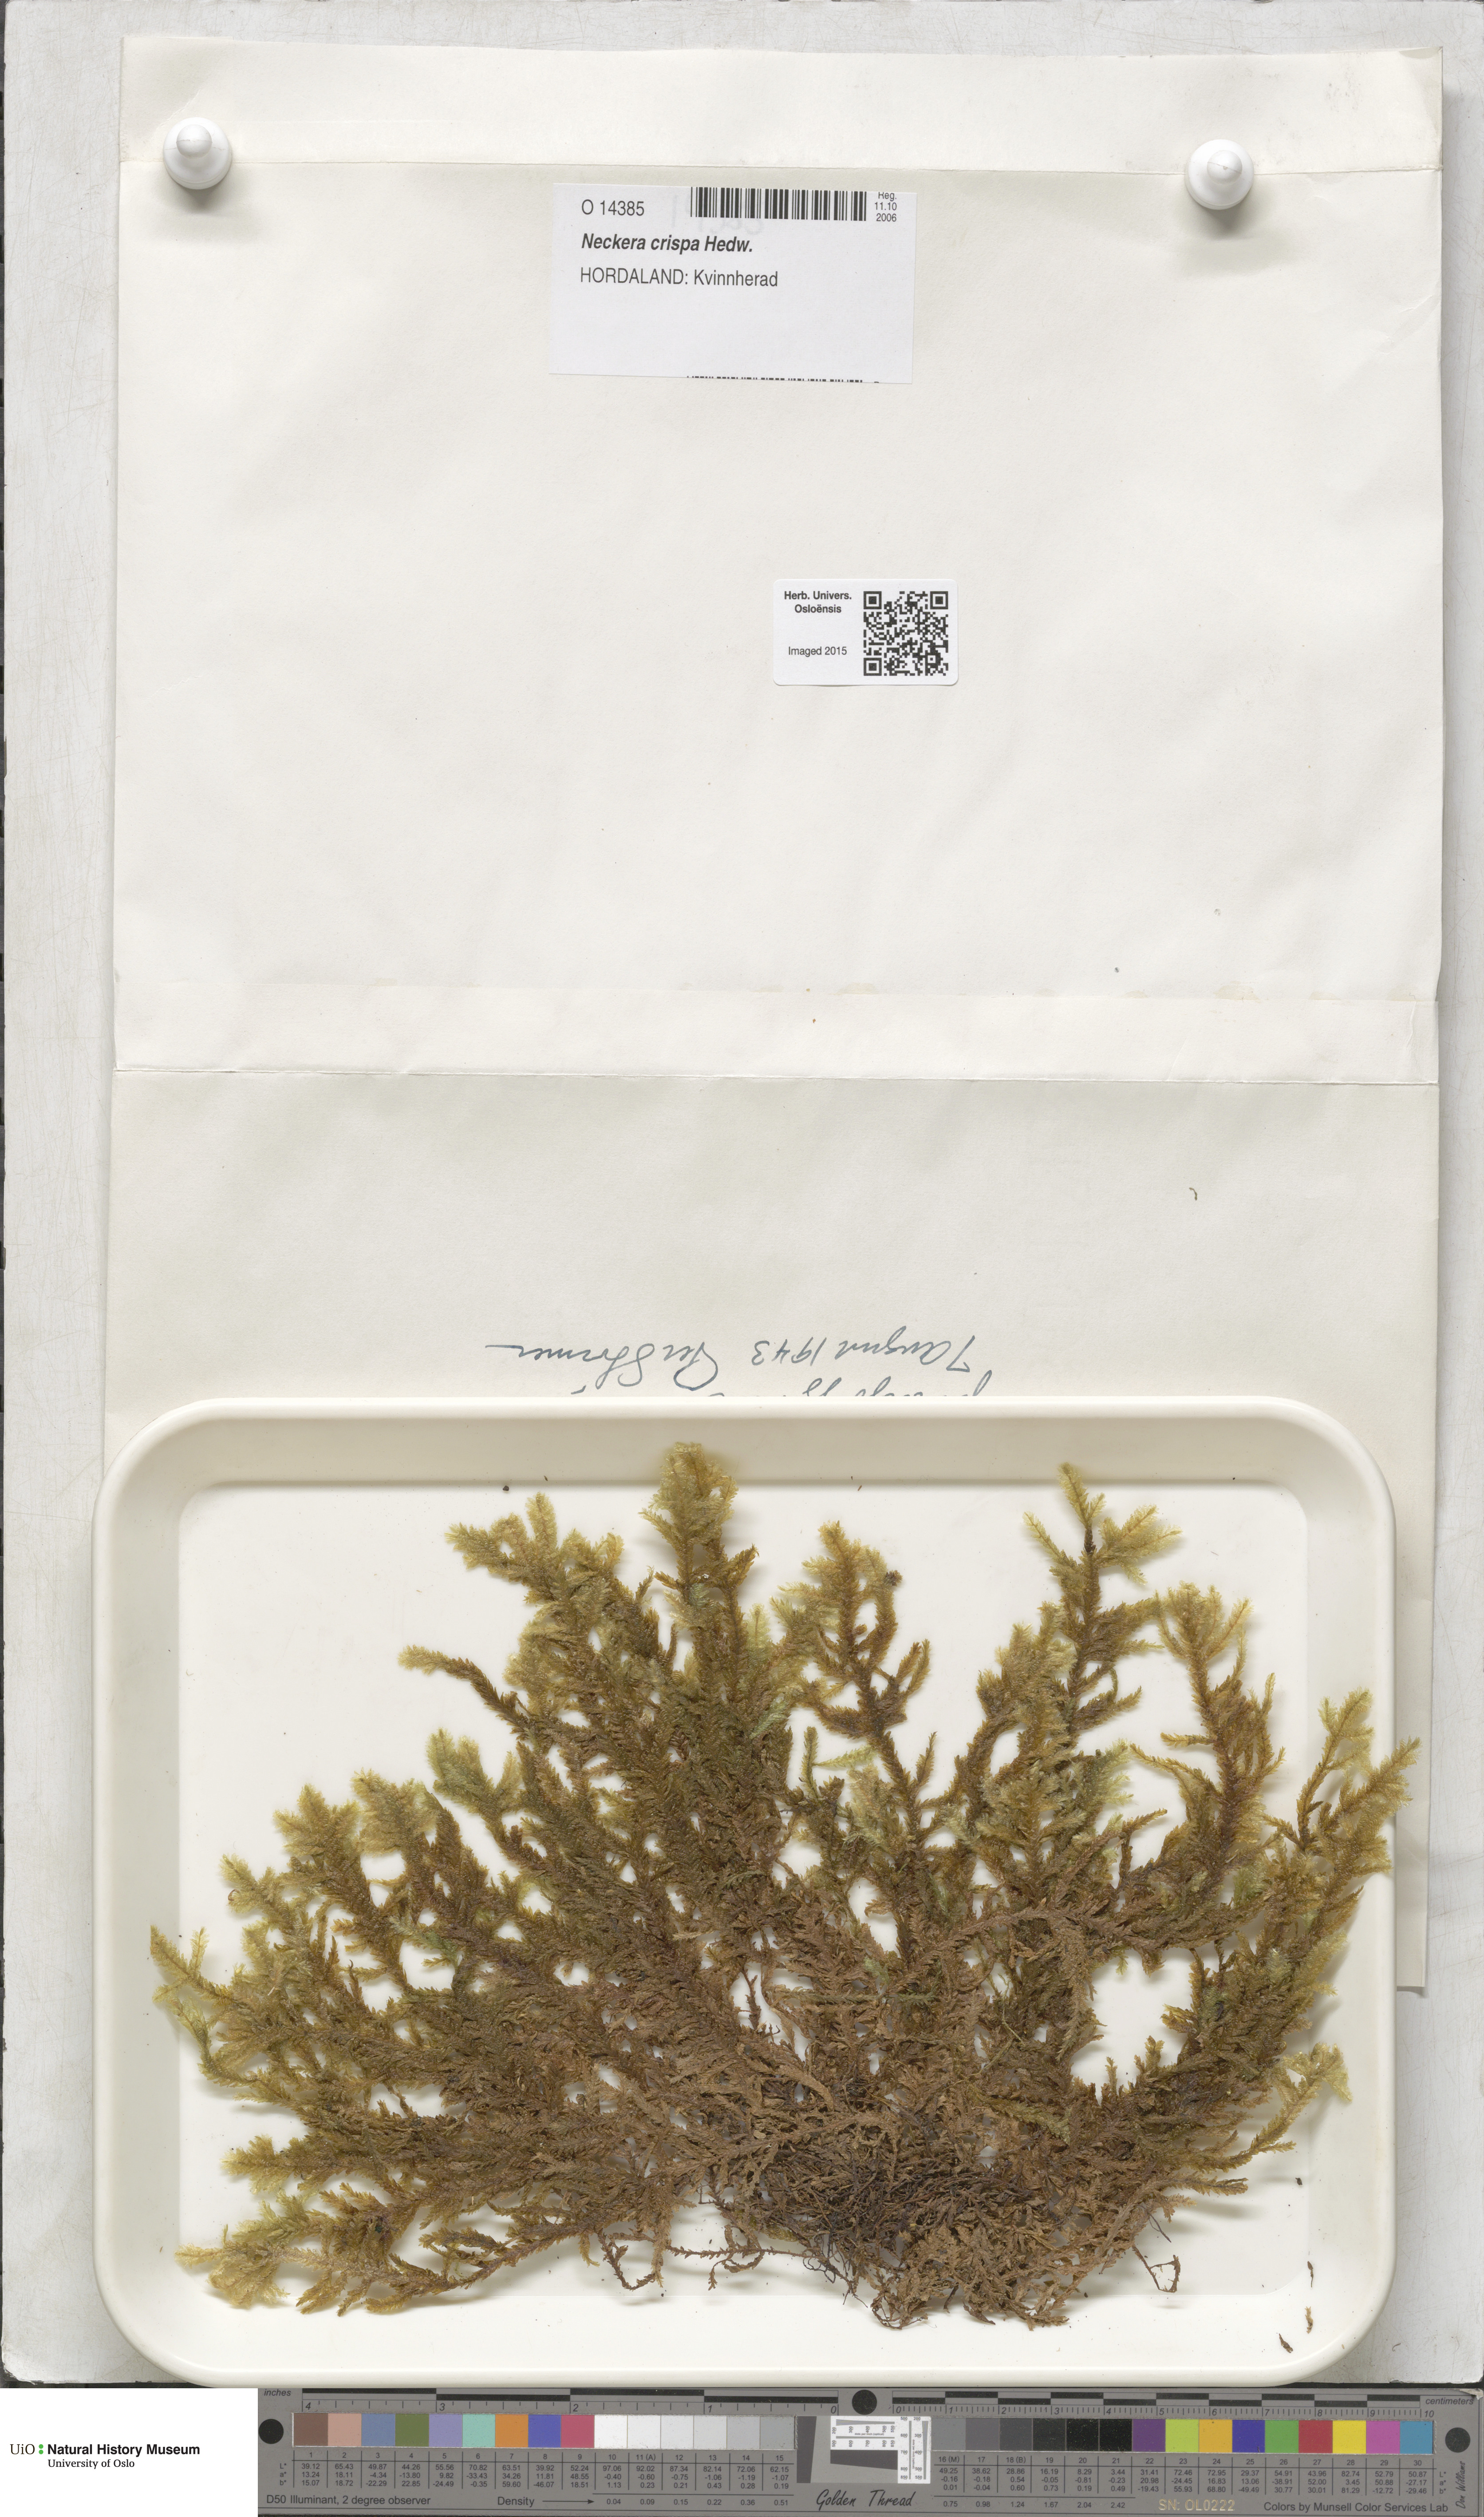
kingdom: Plantae
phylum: Bryophyta
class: Bryopsida
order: Hypnales
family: Neckeraceae
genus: Exsertotheca
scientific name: Exsertotheca crispa
